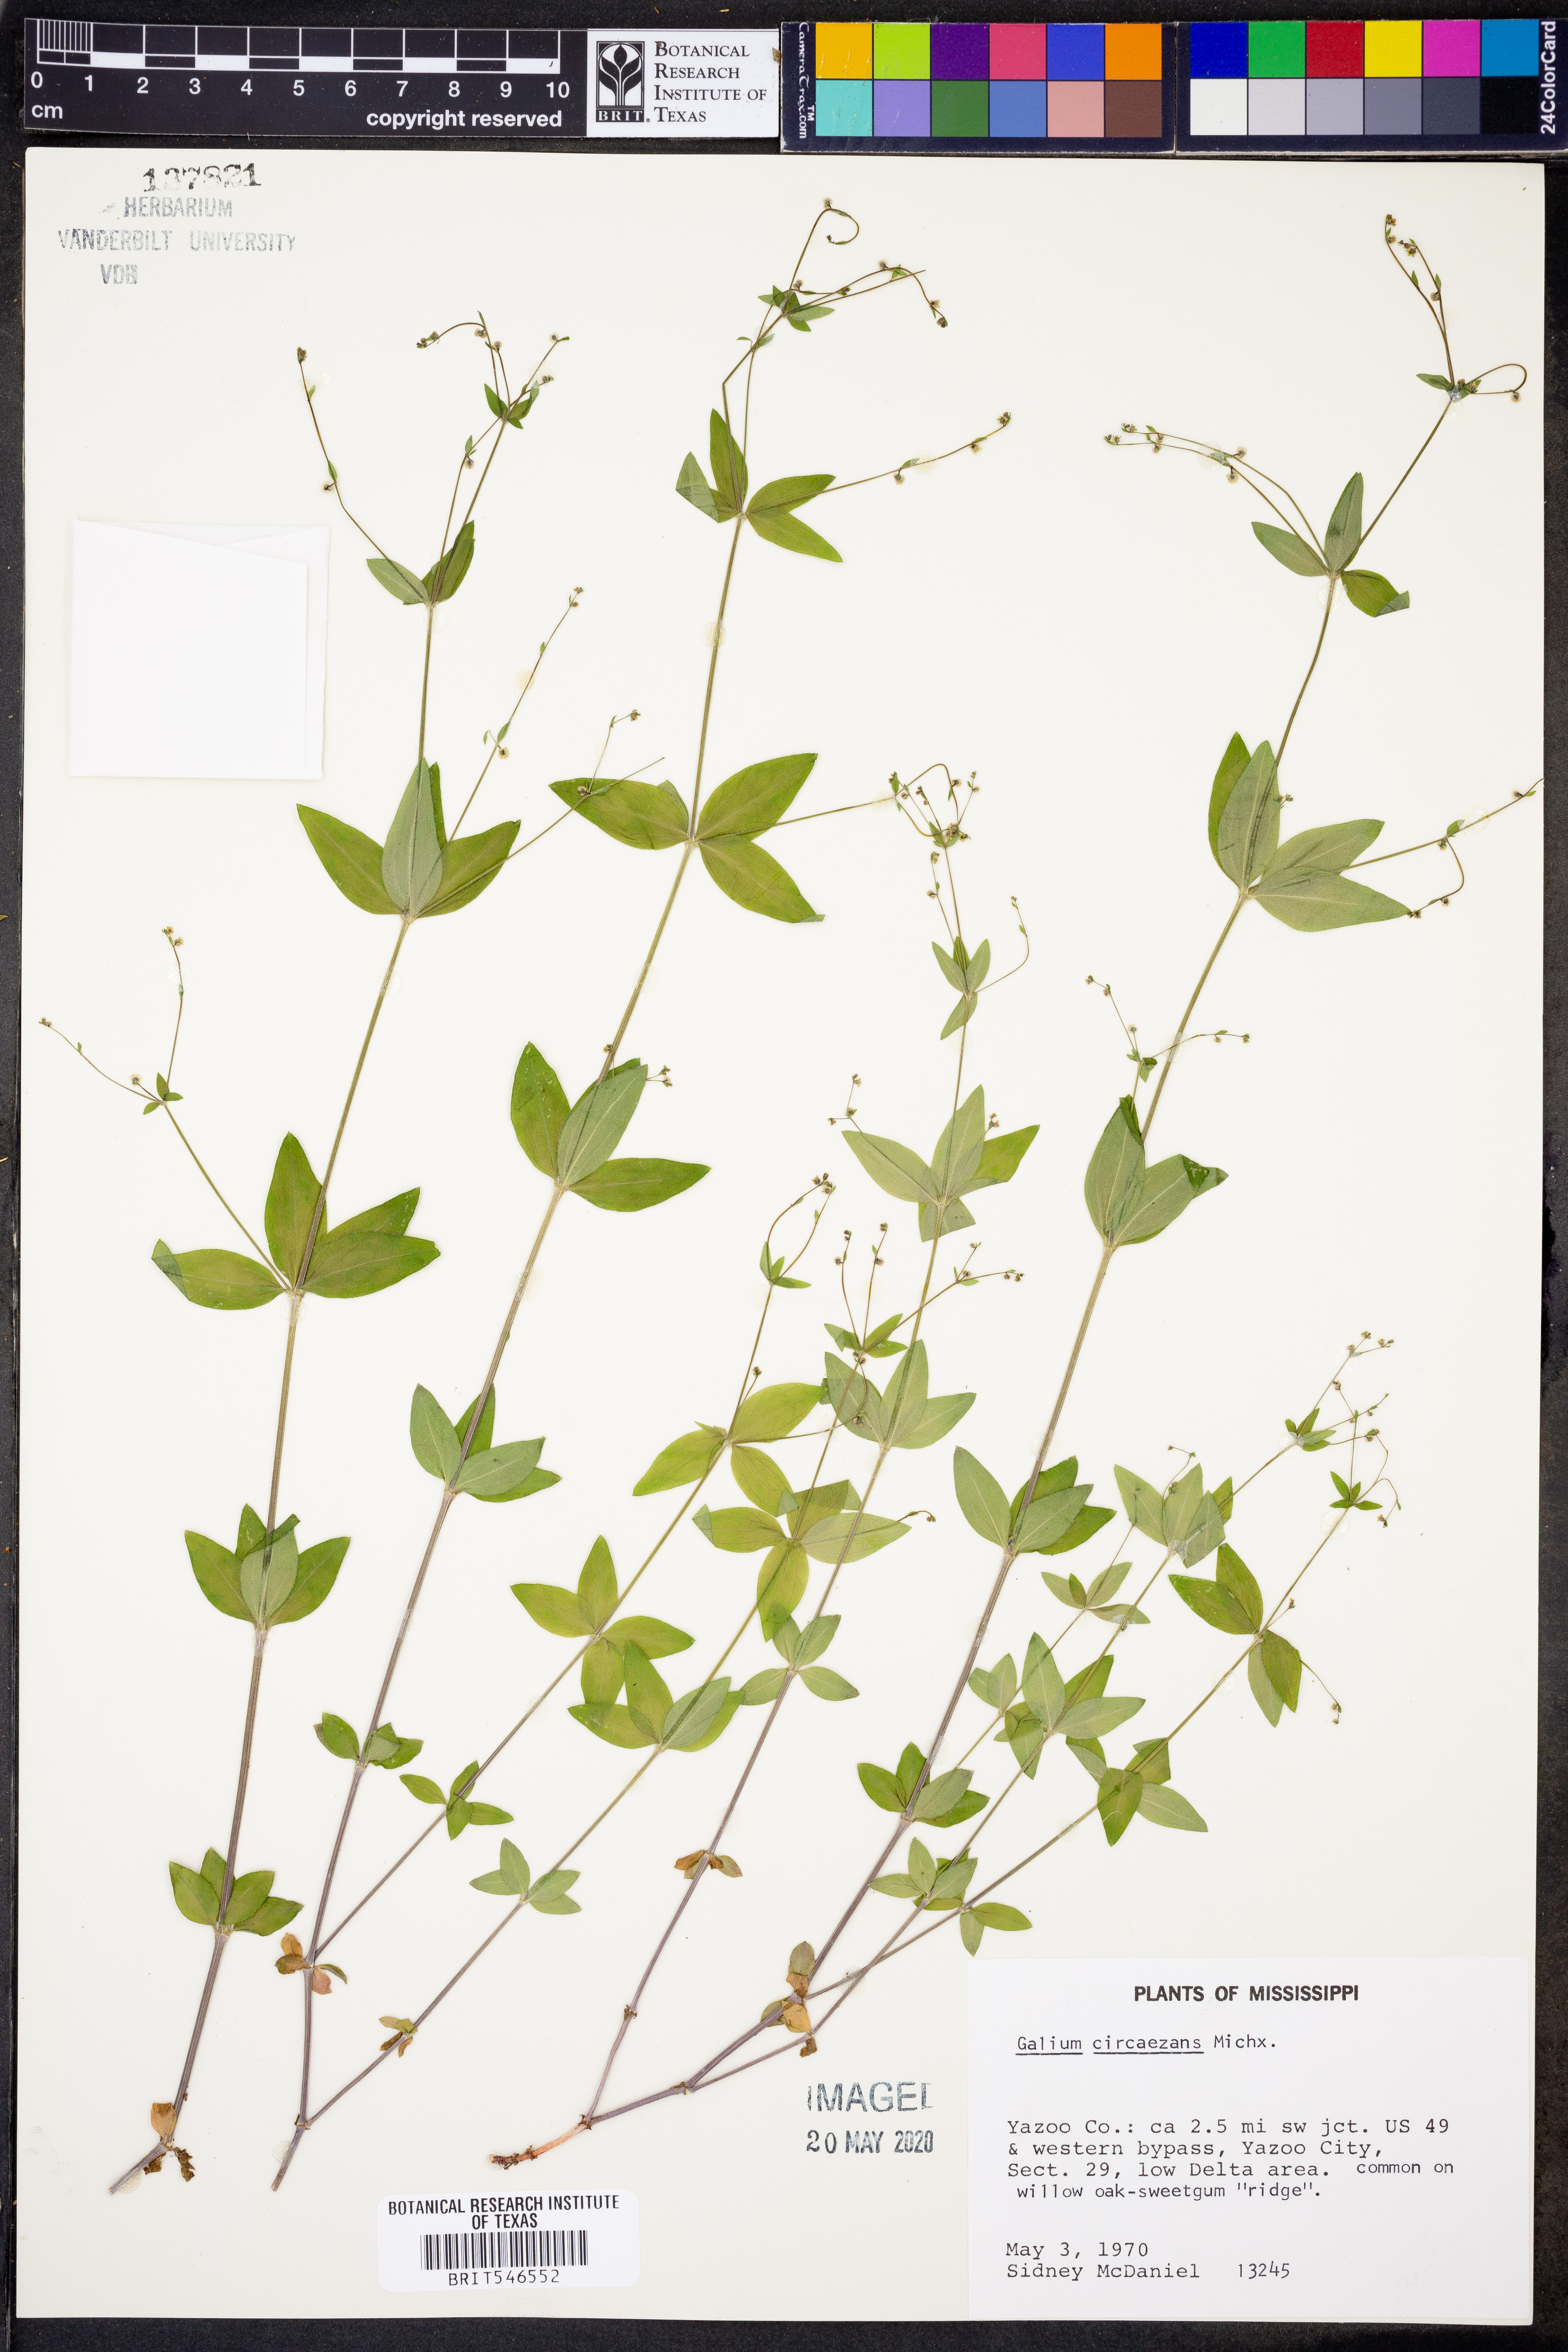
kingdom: Plantae
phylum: Tracheophyta
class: Magnoliopsida
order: Gentianales
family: Rubiaceae
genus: Galium
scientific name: Galium circaezans
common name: Forest bedstraw
